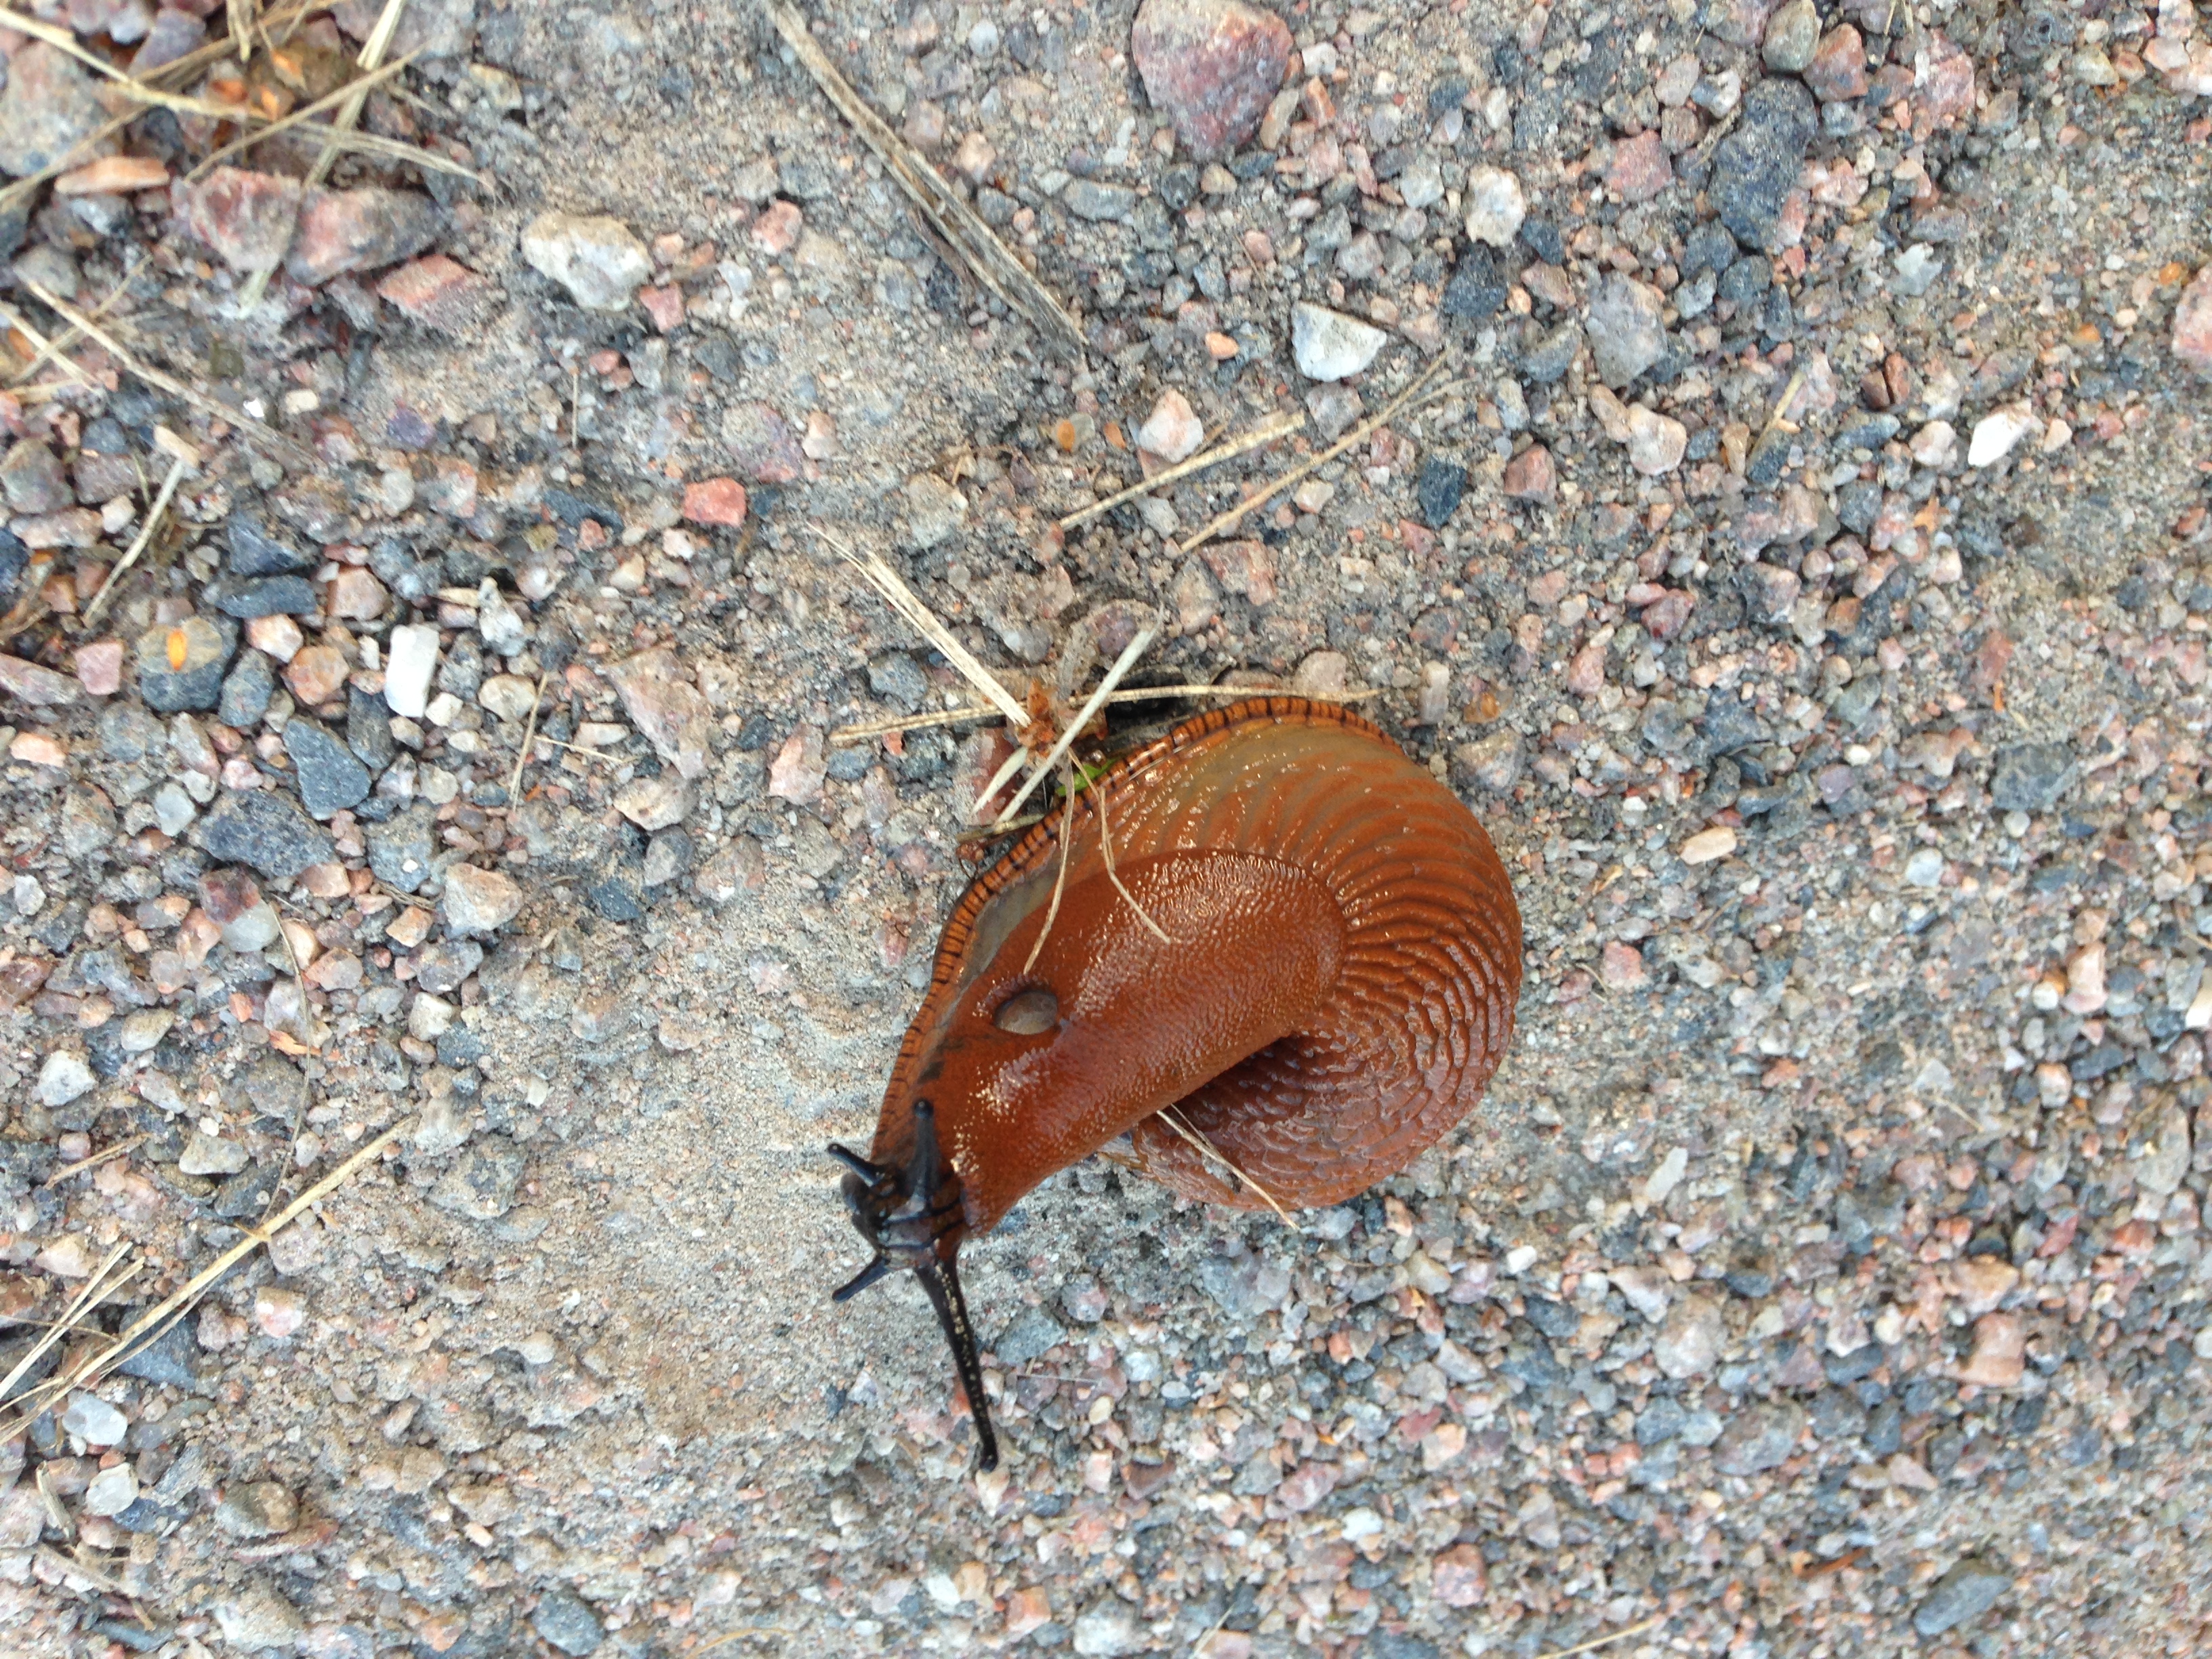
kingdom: Animalia
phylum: Mollusca
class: Gastropoda
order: Stylommatophora
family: Arionidae
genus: Arion
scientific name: Arion vulgaris
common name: Lusitanian slug
